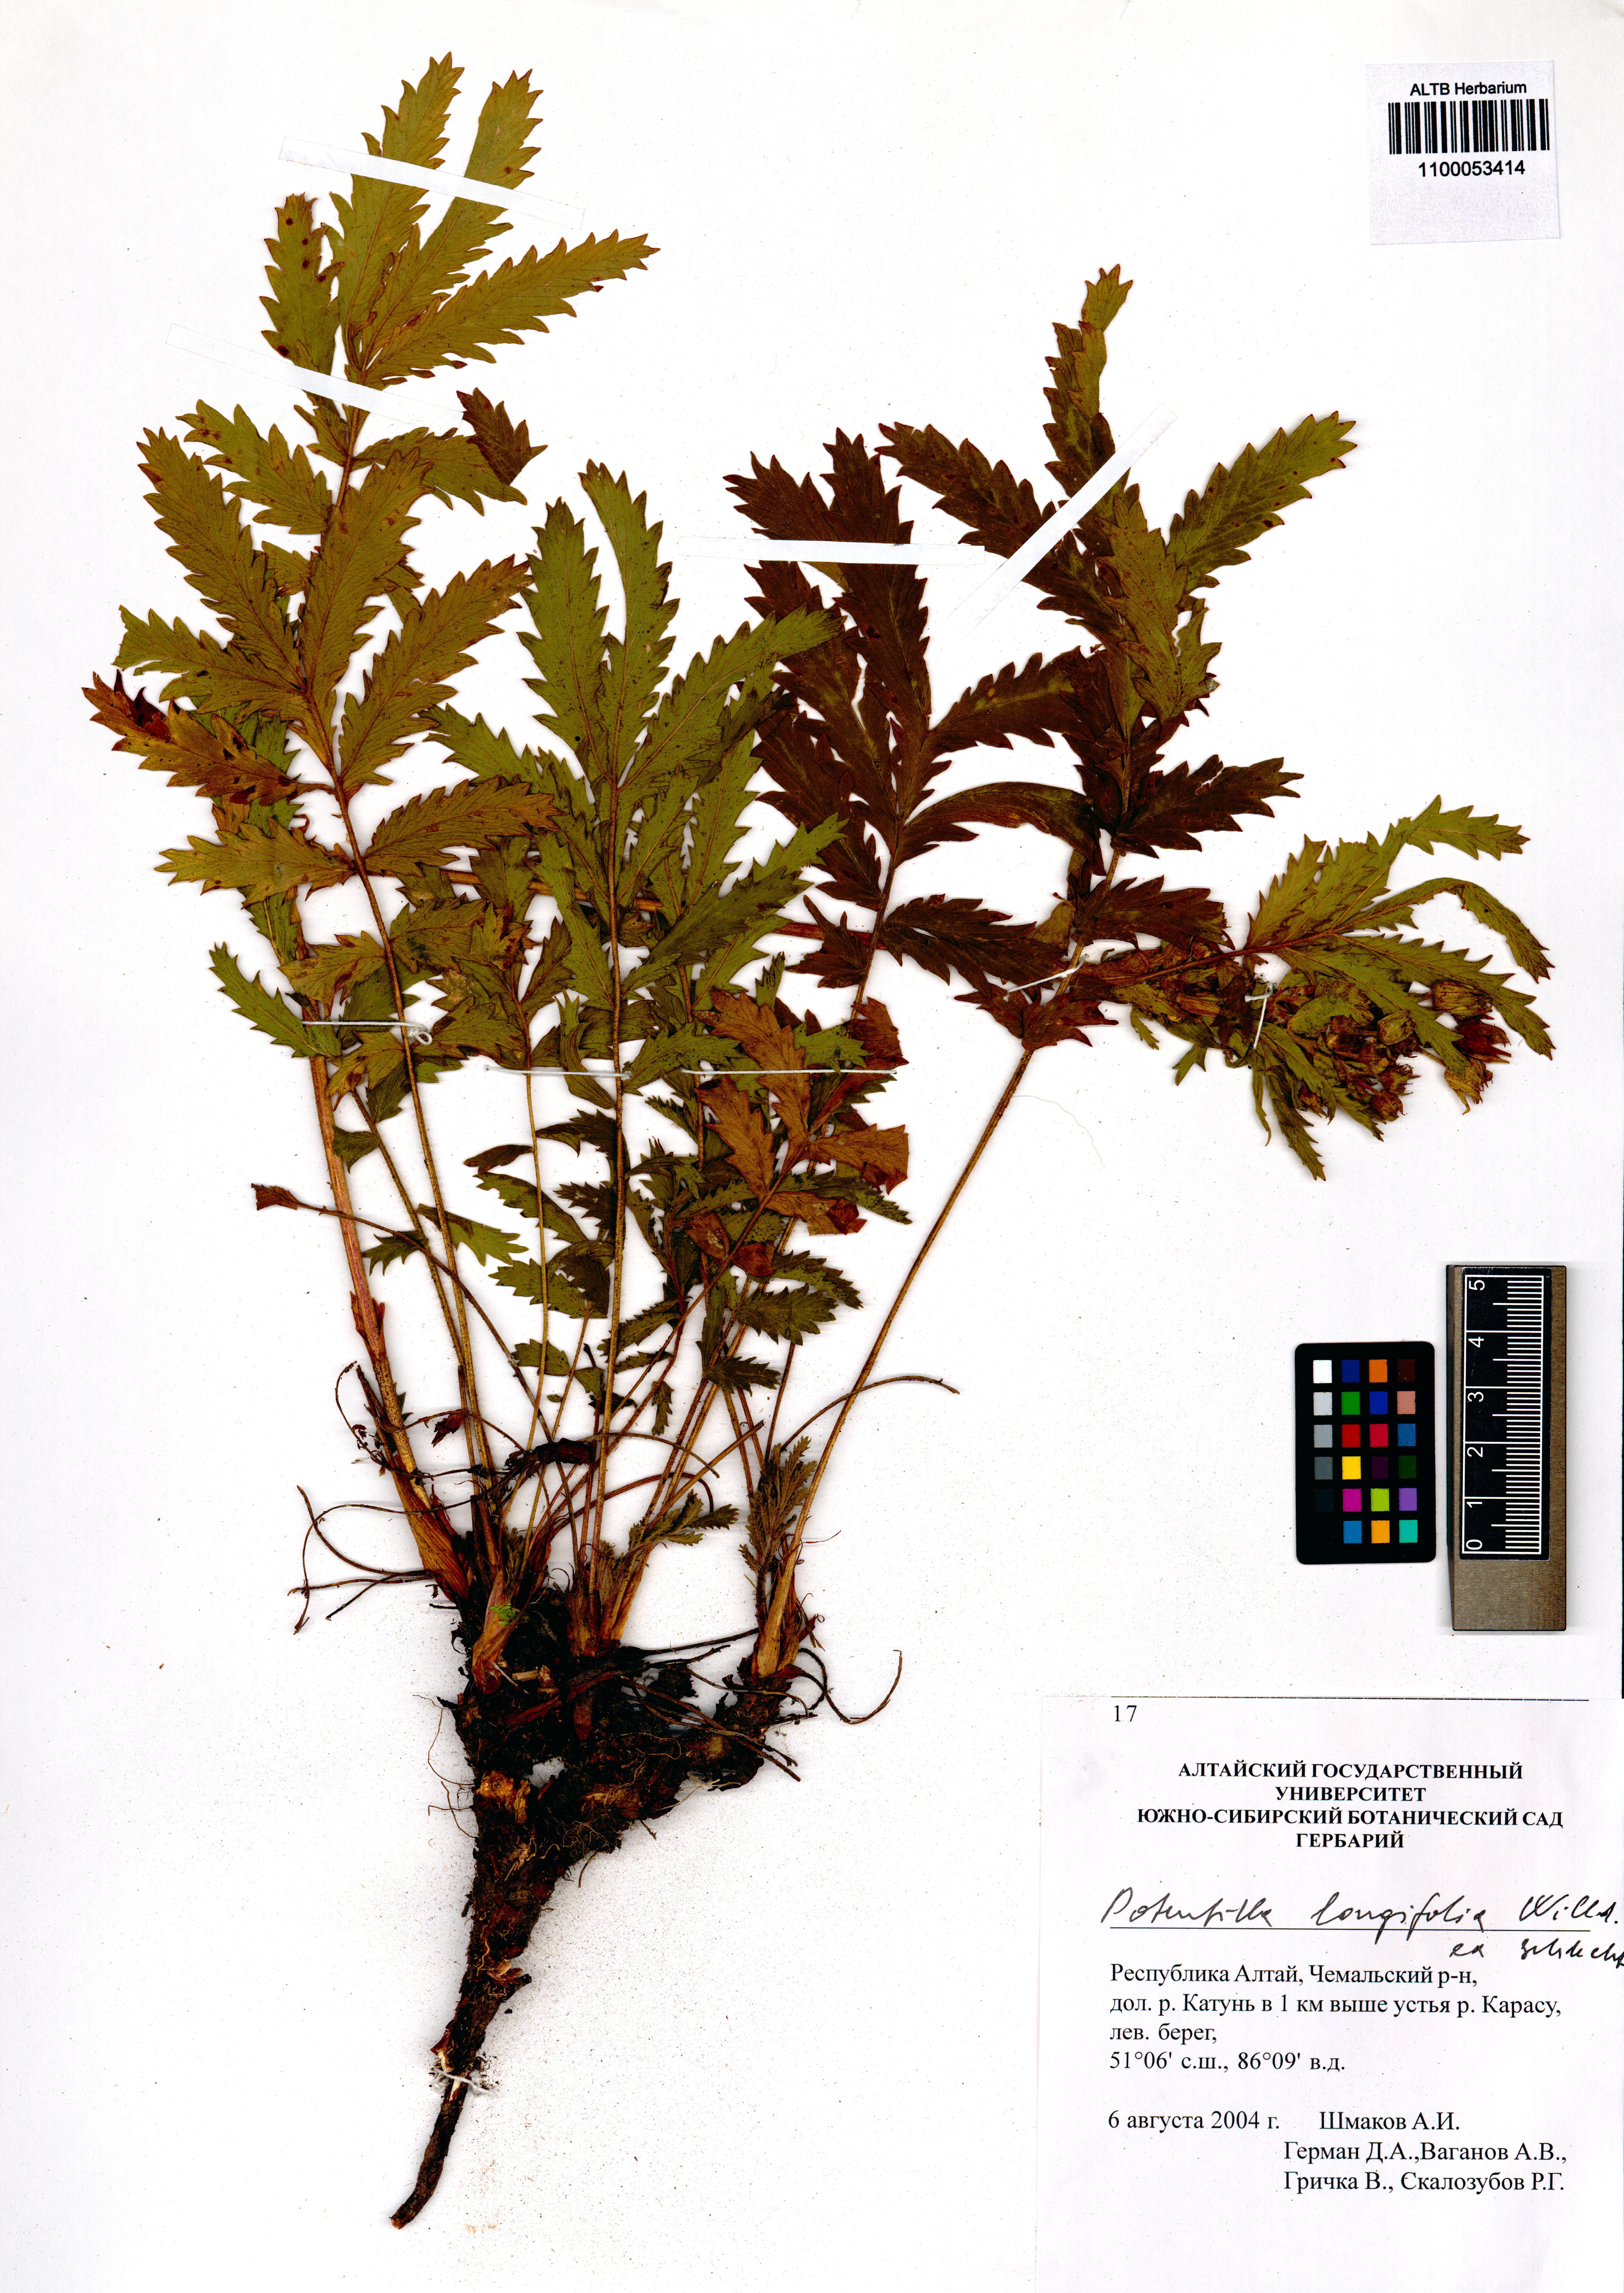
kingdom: Plantae
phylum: Tracheophyta
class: Magnoliopsida
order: Rosales
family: Rosaceae
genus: Potentilla
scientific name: Potentilla longifolia
